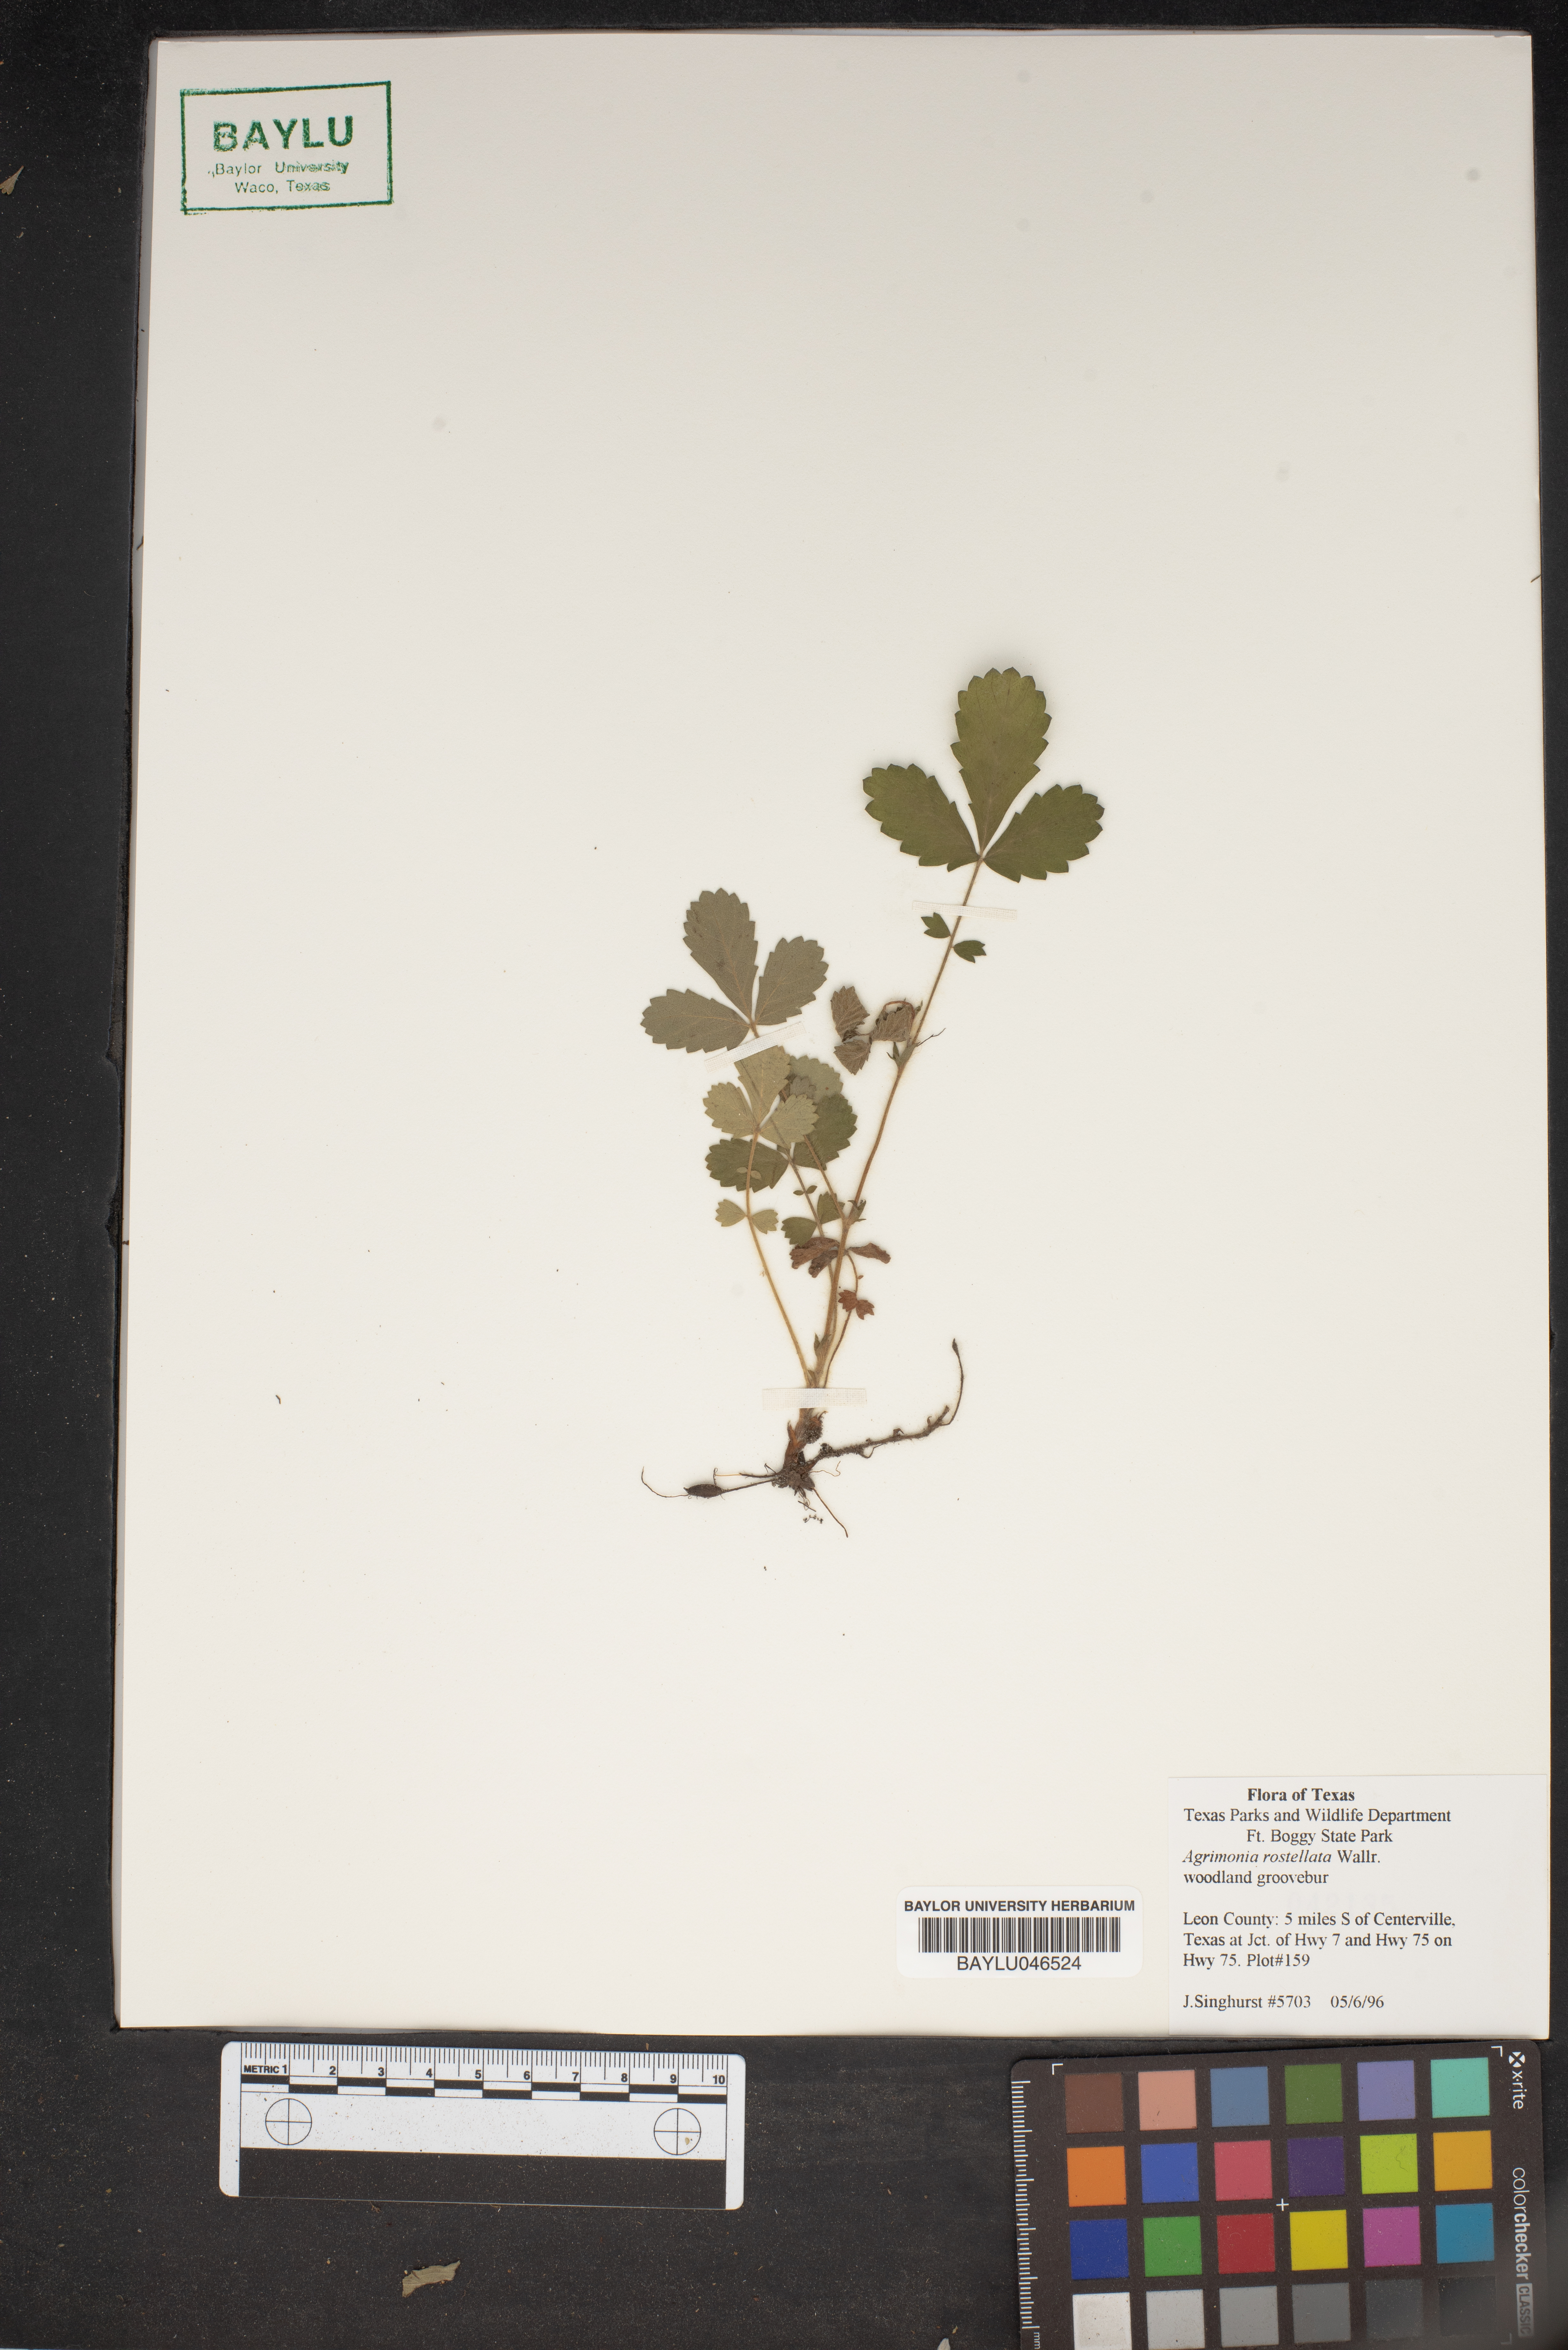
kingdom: Plantae
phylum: Tracheophyta
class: Magnoliopsida
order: Rosales
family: Rosaceae
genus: Agrimonia
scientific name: Agrimonia rostellata
